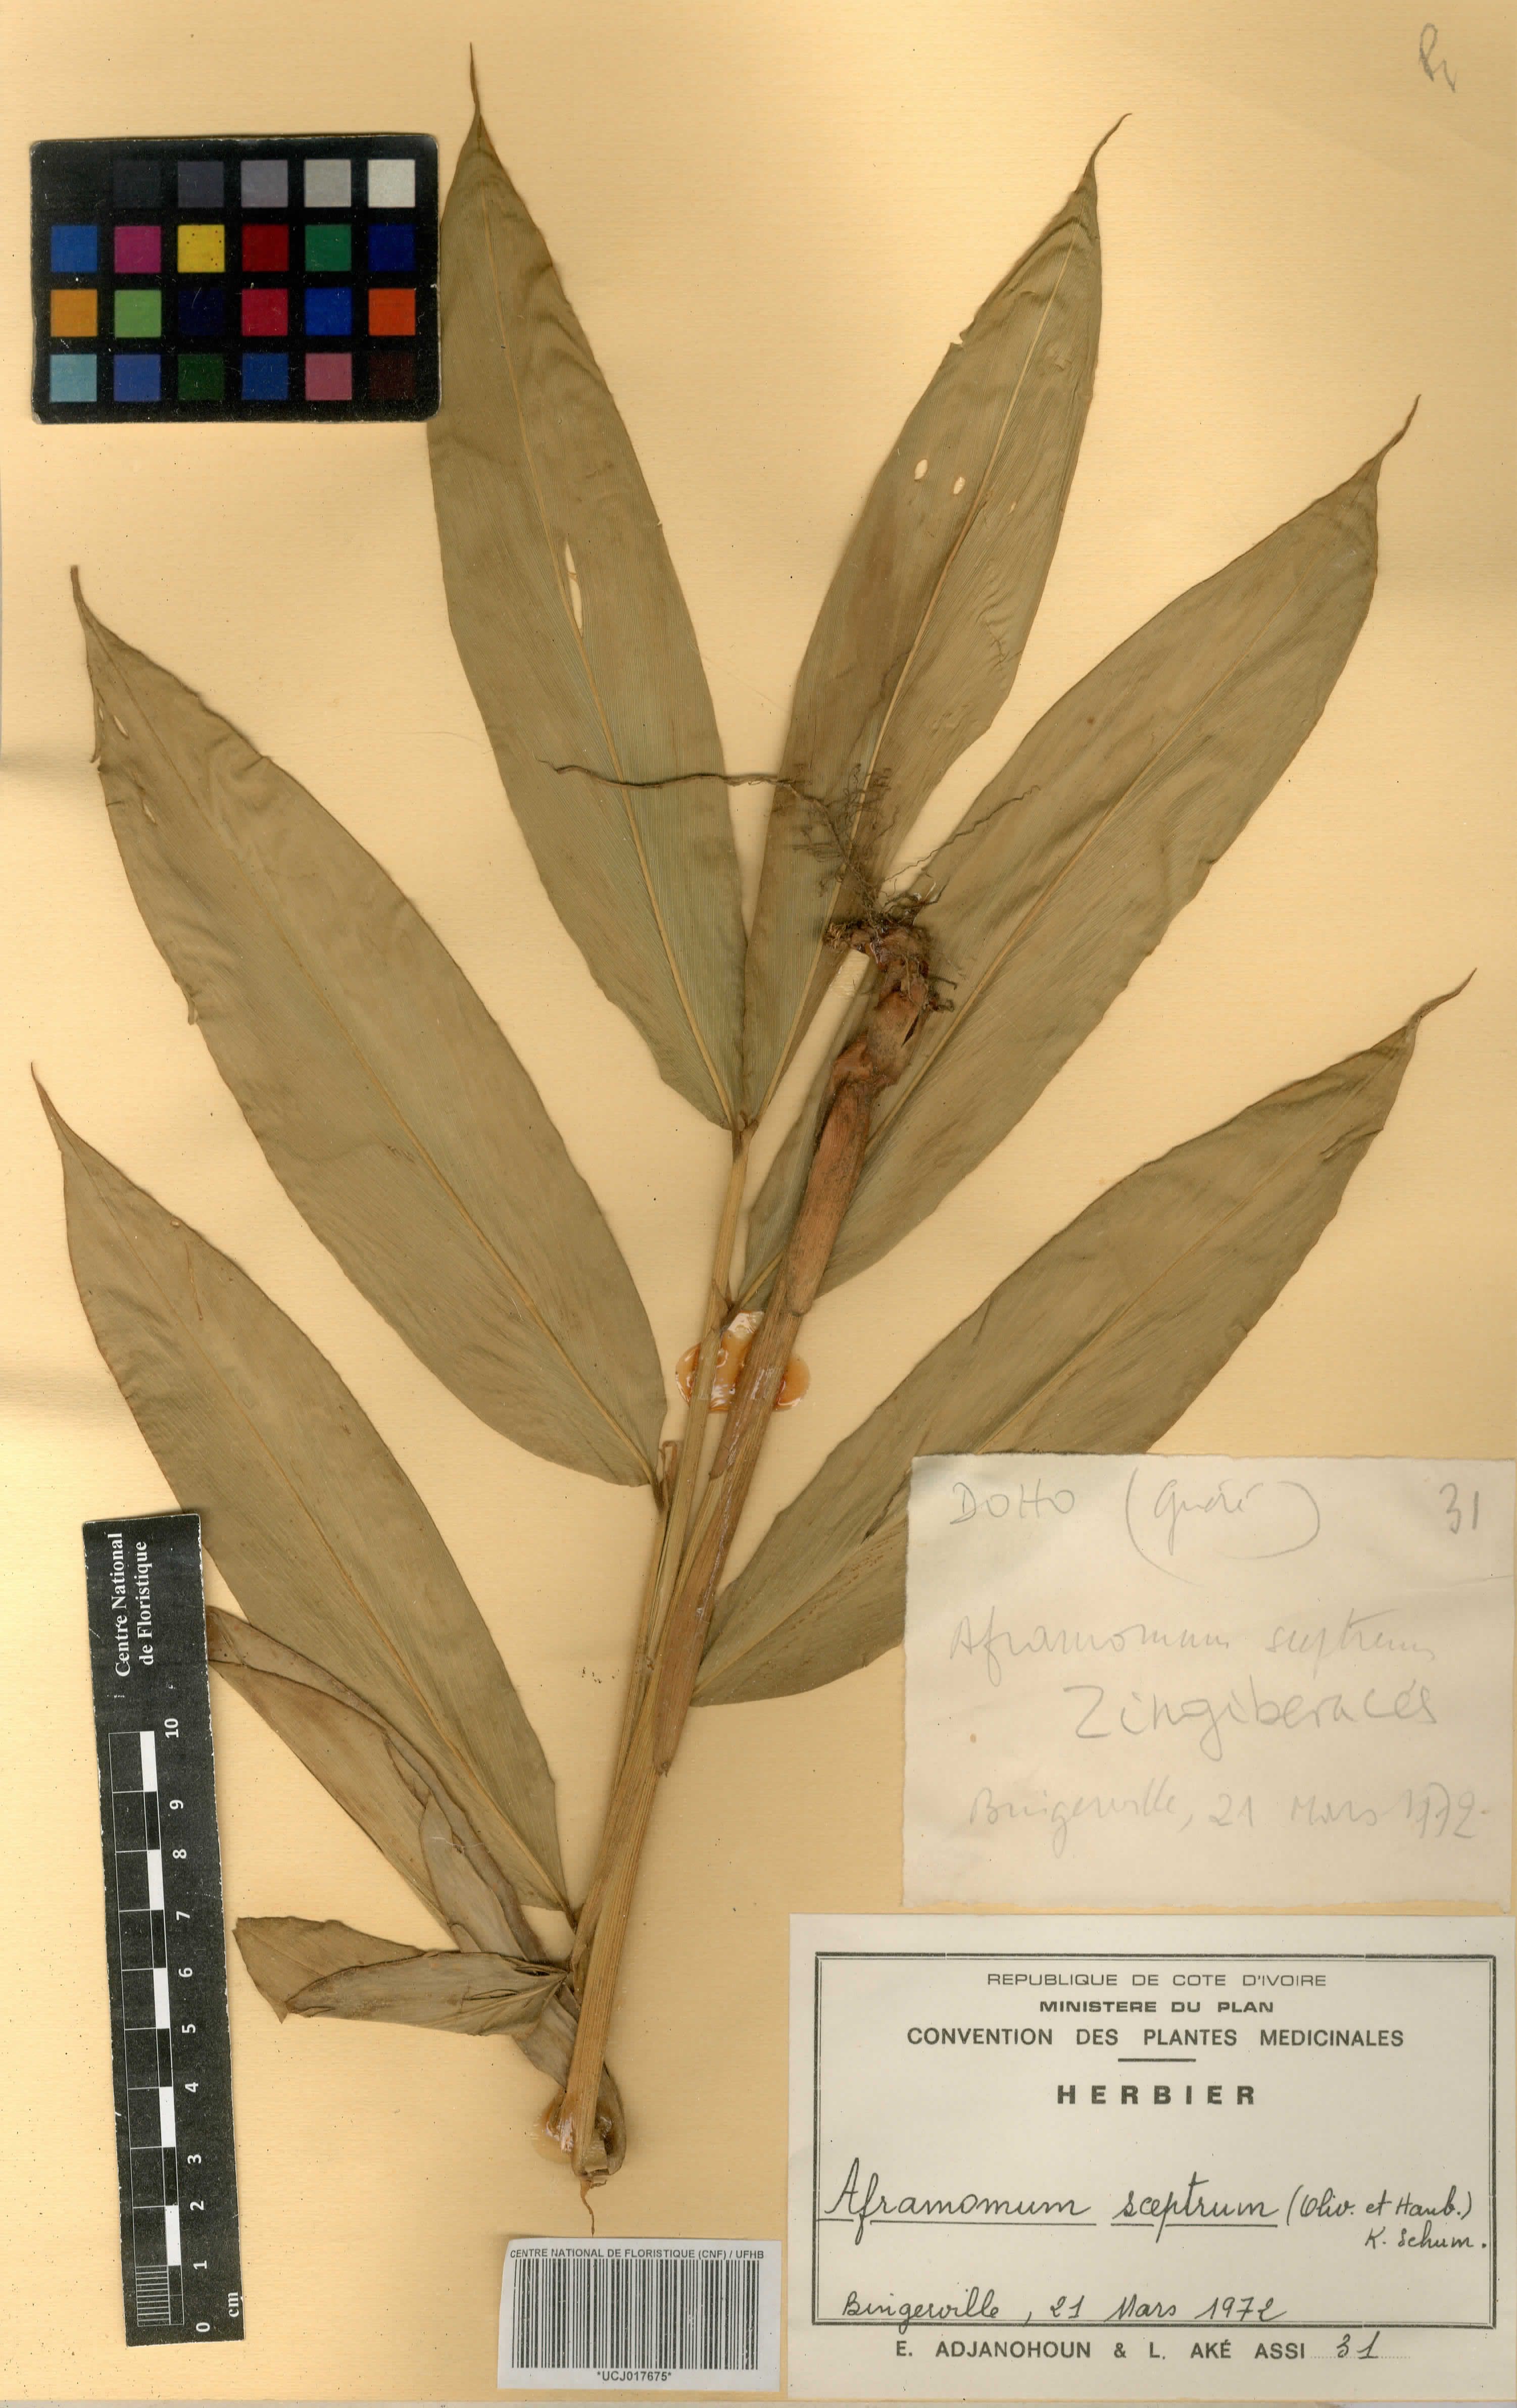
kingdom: Plantae
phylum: Tracheophyta
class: Liliopsida
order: Zingiberales
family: Zingiberaceae
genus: Aframomum
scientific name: Aframomum cereum
